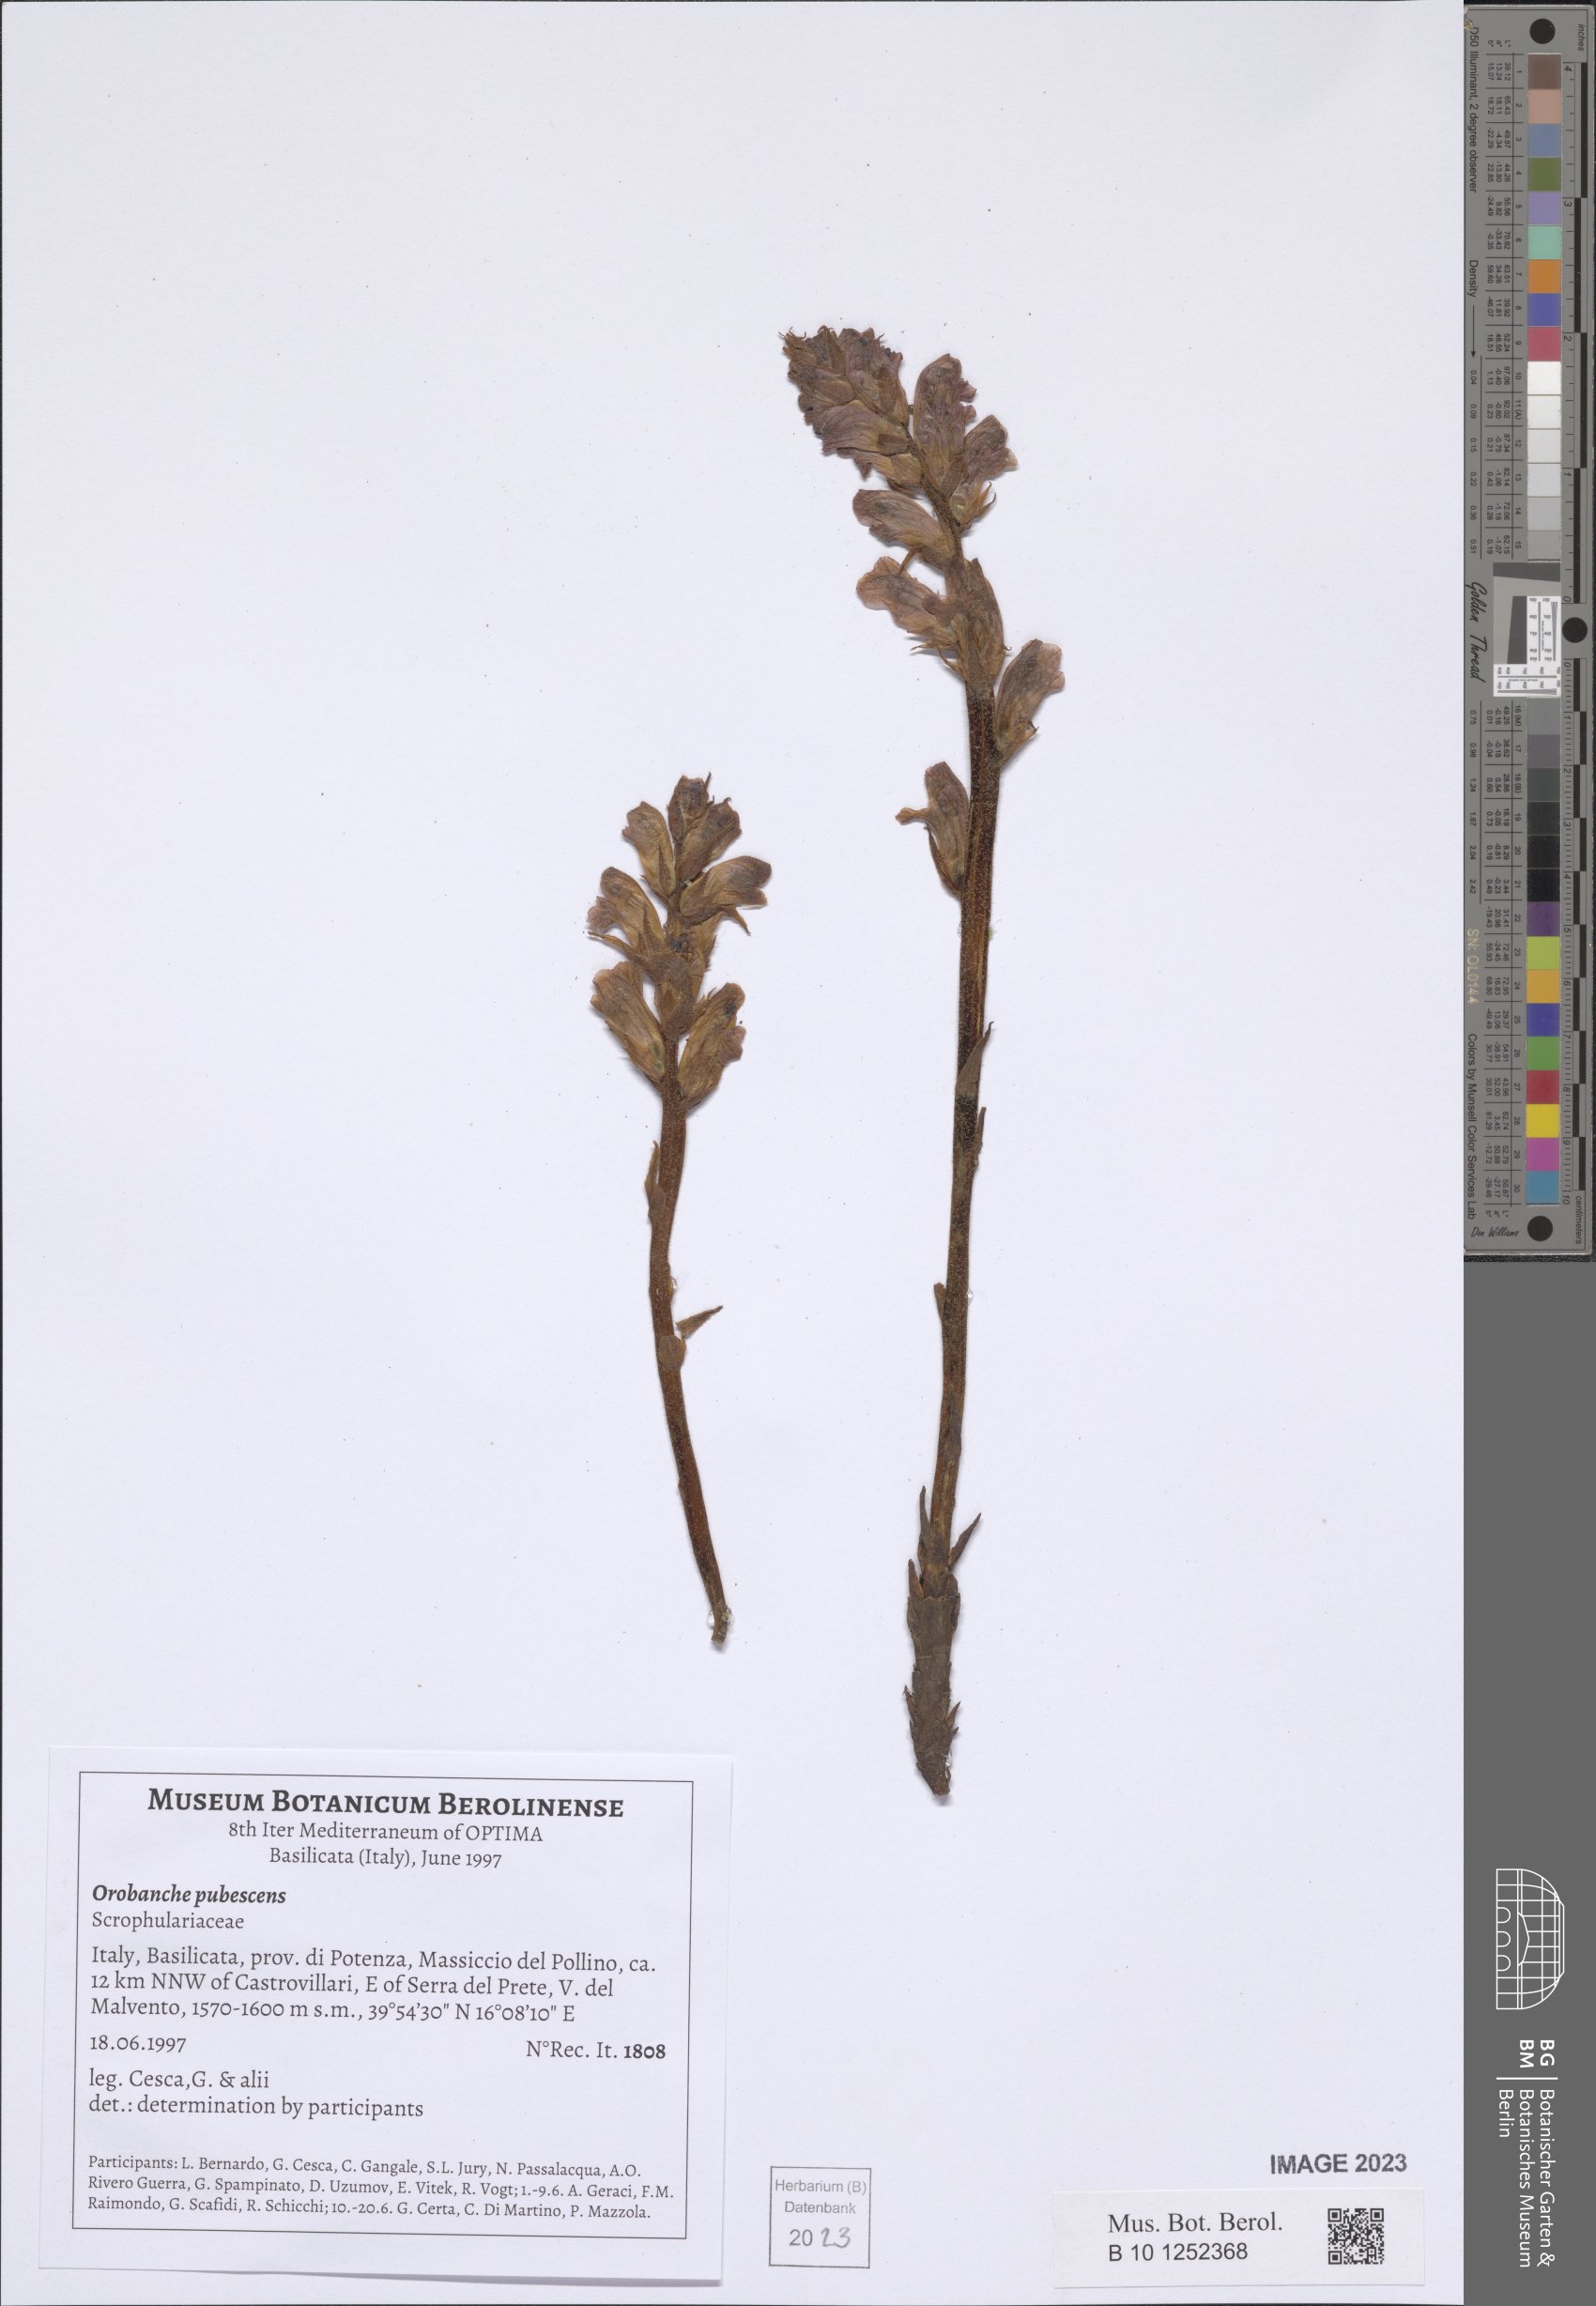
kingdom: Plantae
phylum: Tracheophyta
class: Magnoliopsida
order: Lamiales
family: Orobanchaceae
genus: Orobanche
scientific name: Orobanche pubescens
